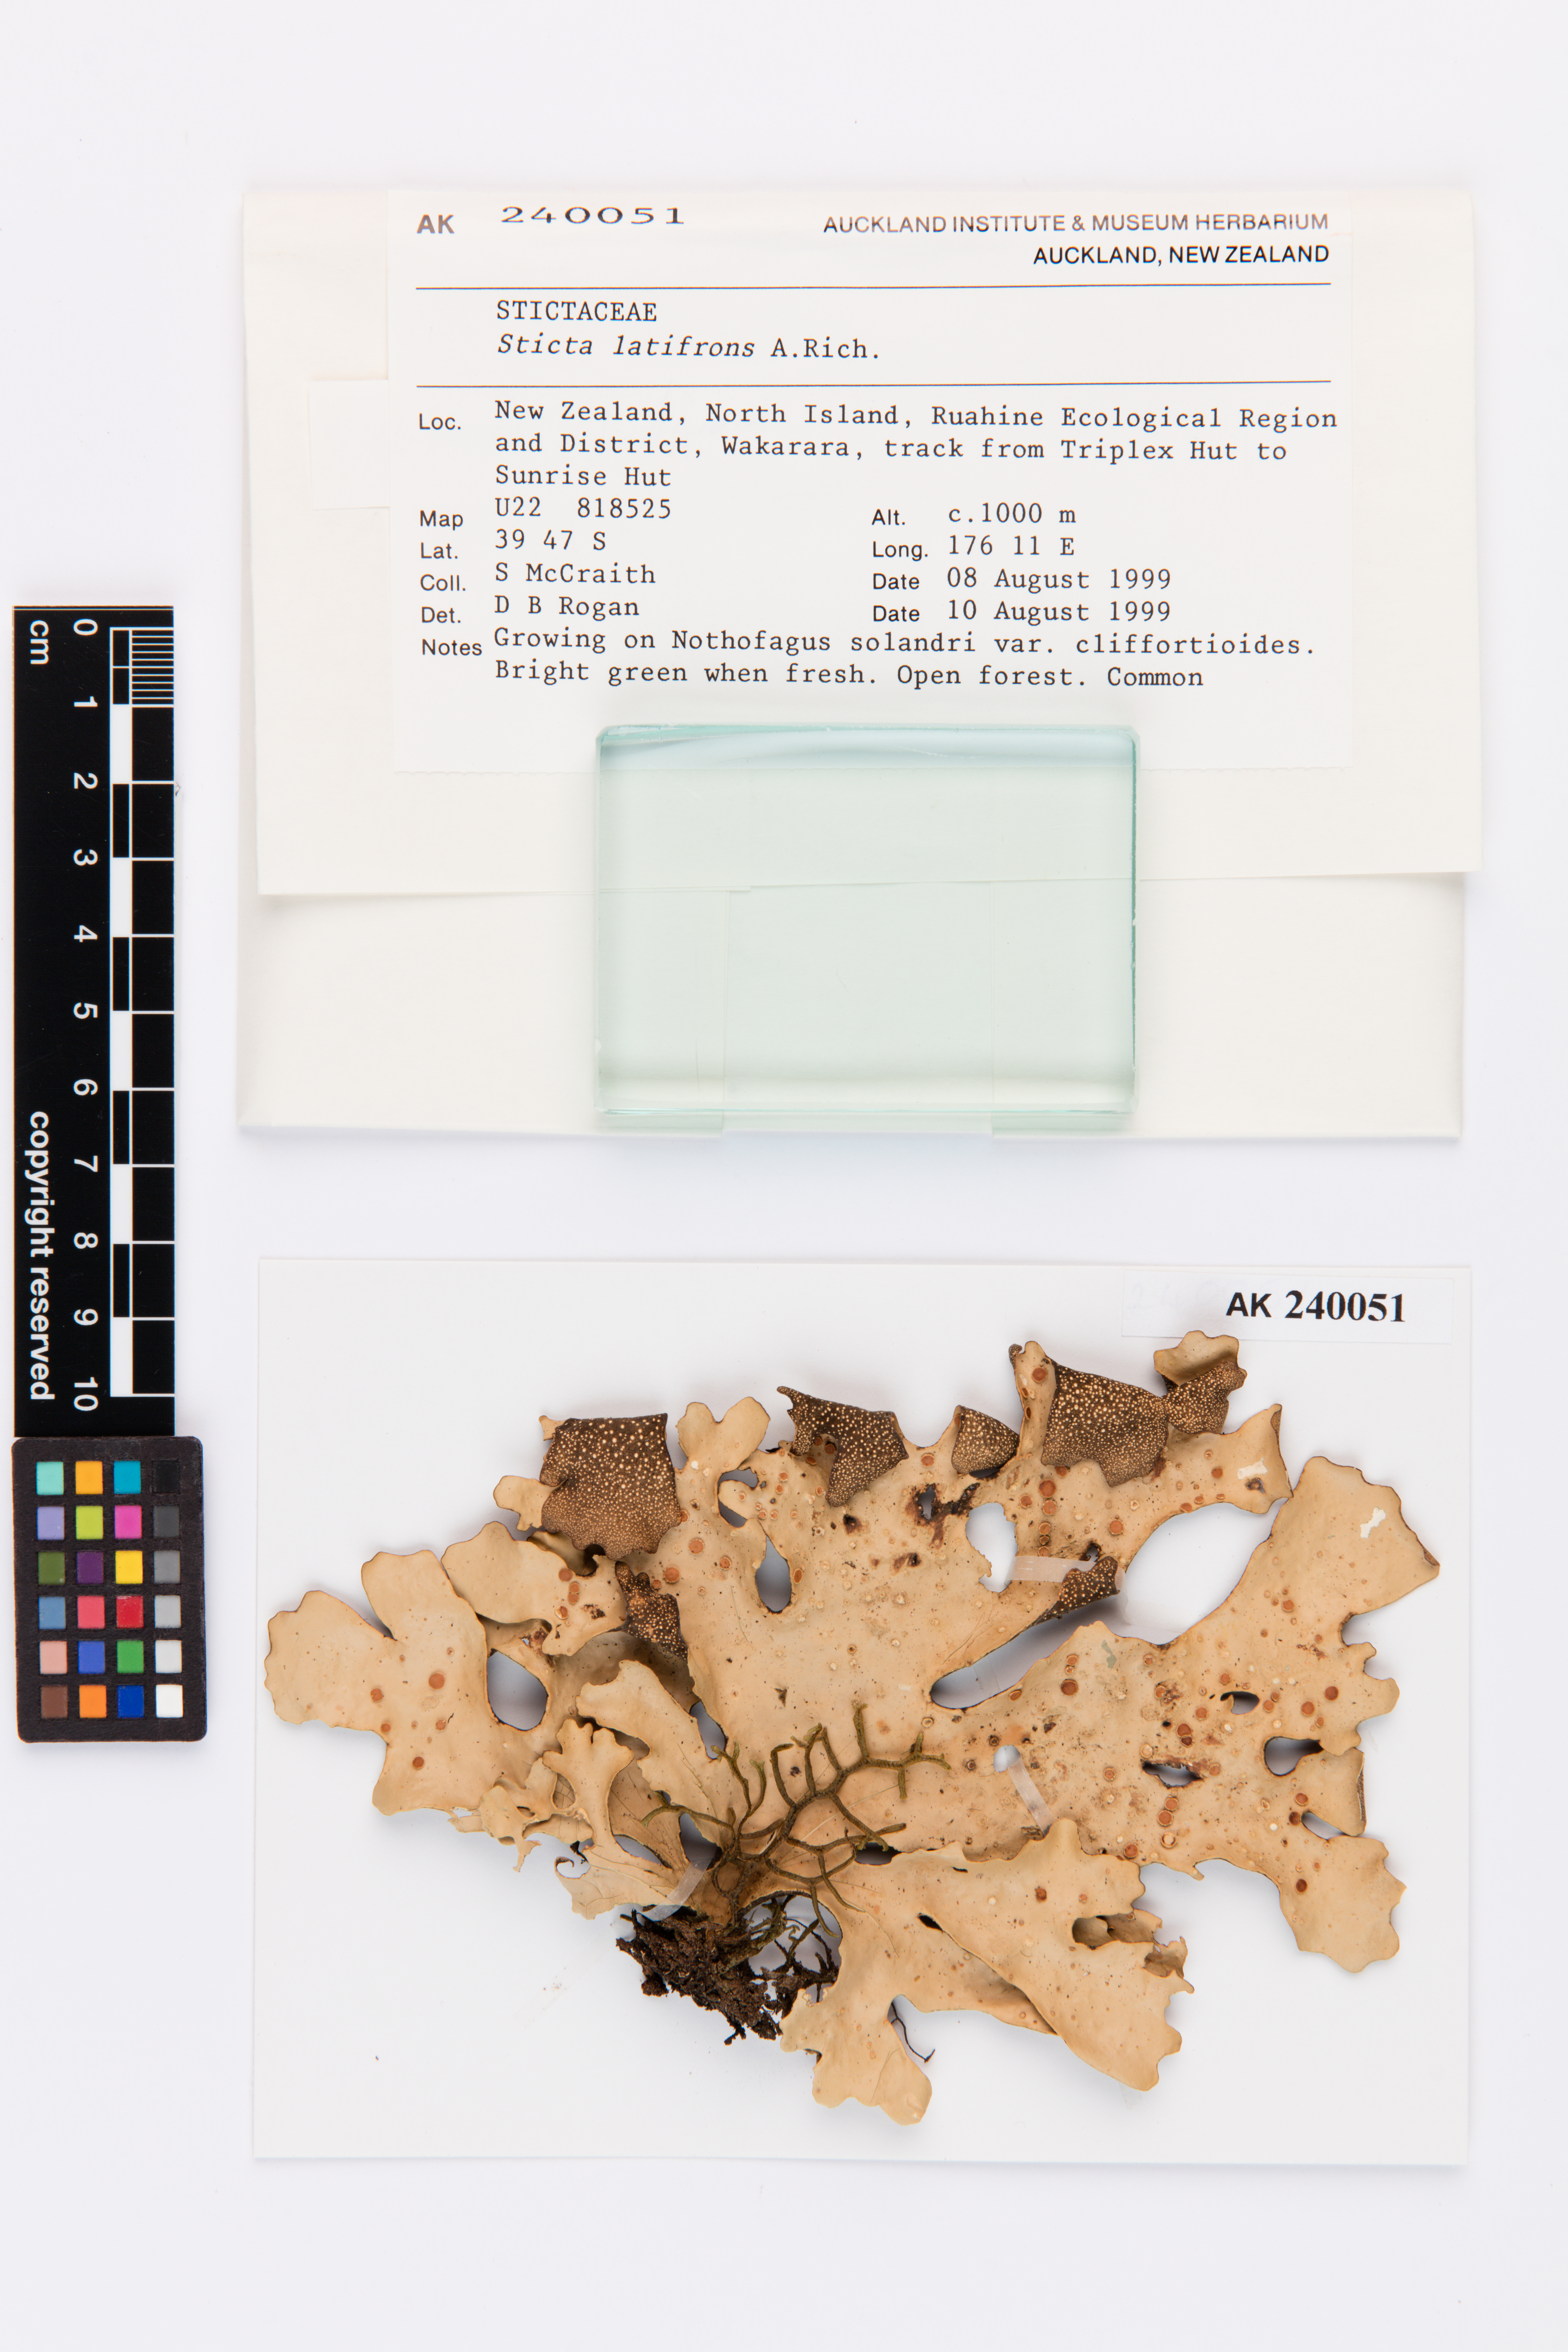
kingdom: Fungi
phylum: Ascomycota
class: Lecanoromycetes
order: Peltigerales
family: Lobariaceae
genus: Sticta
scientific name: Sticta latifrons
